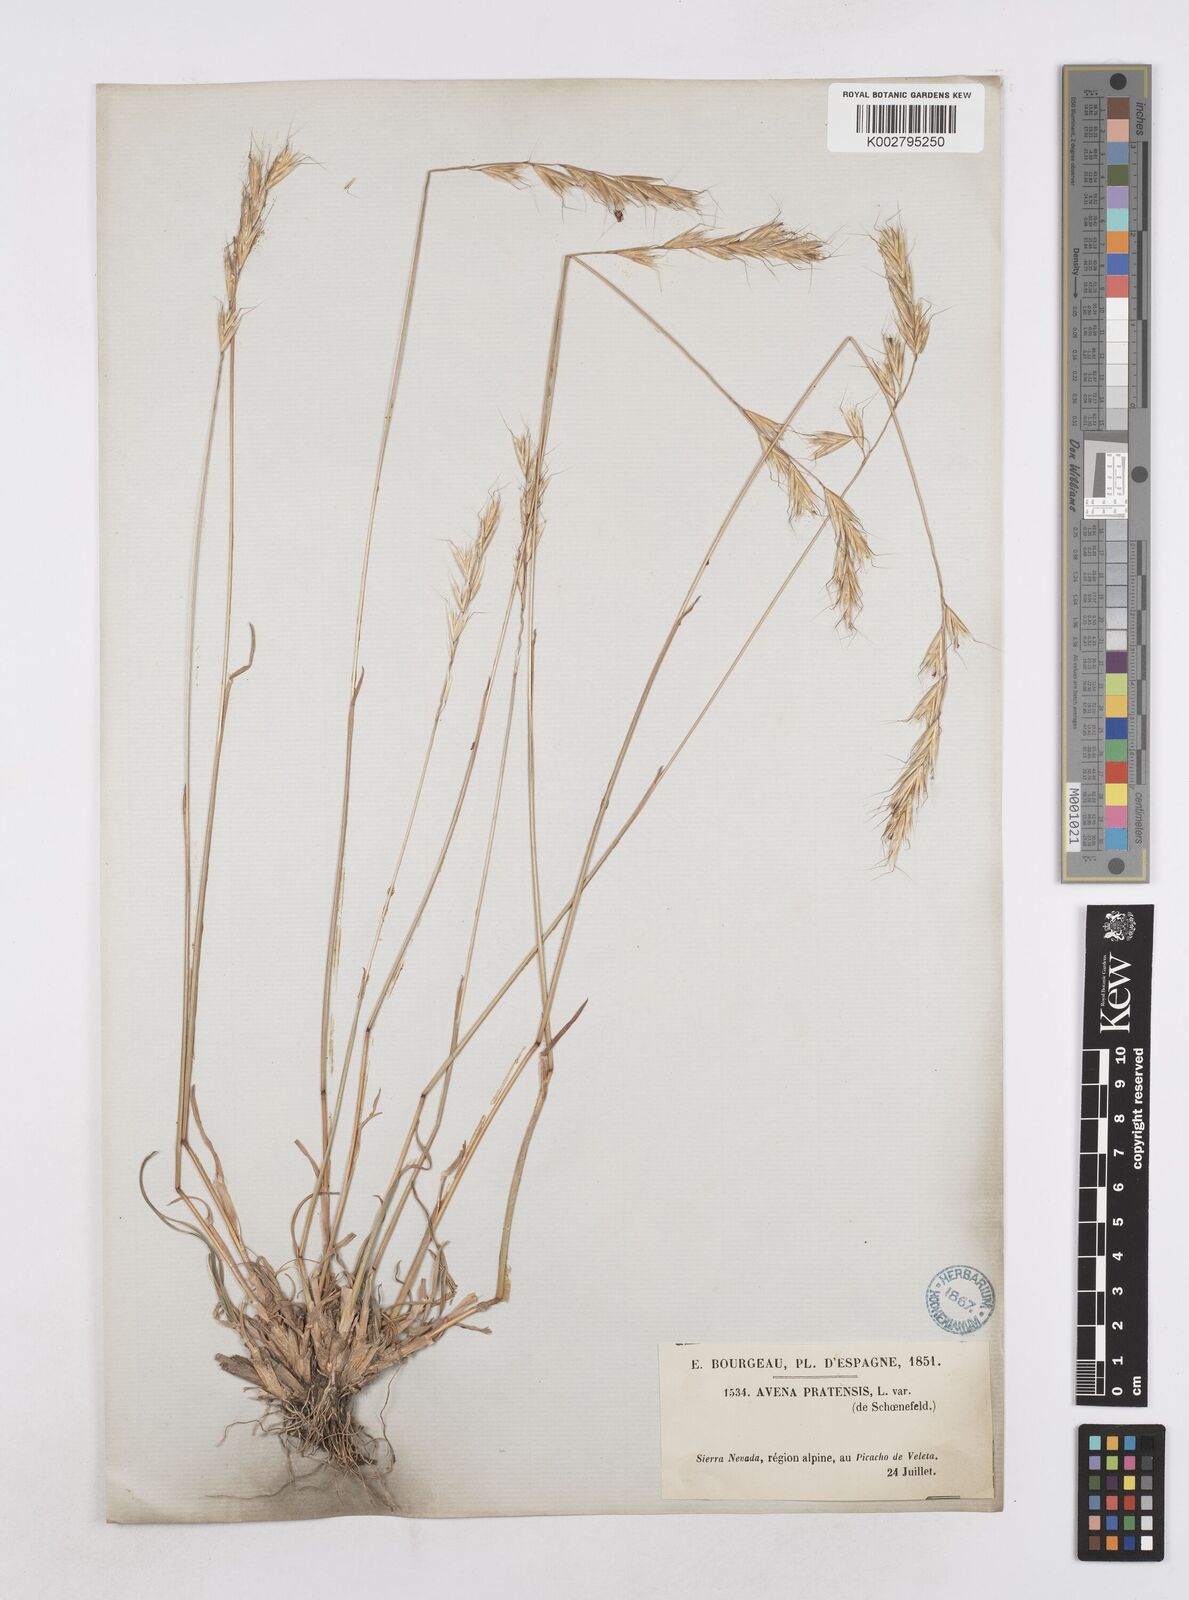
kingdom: Plantae
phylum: Tracheophyta
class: Liliopsida
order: Poales
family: Poaceae
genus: Helictochloa
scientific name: Helictochloa bromoides
